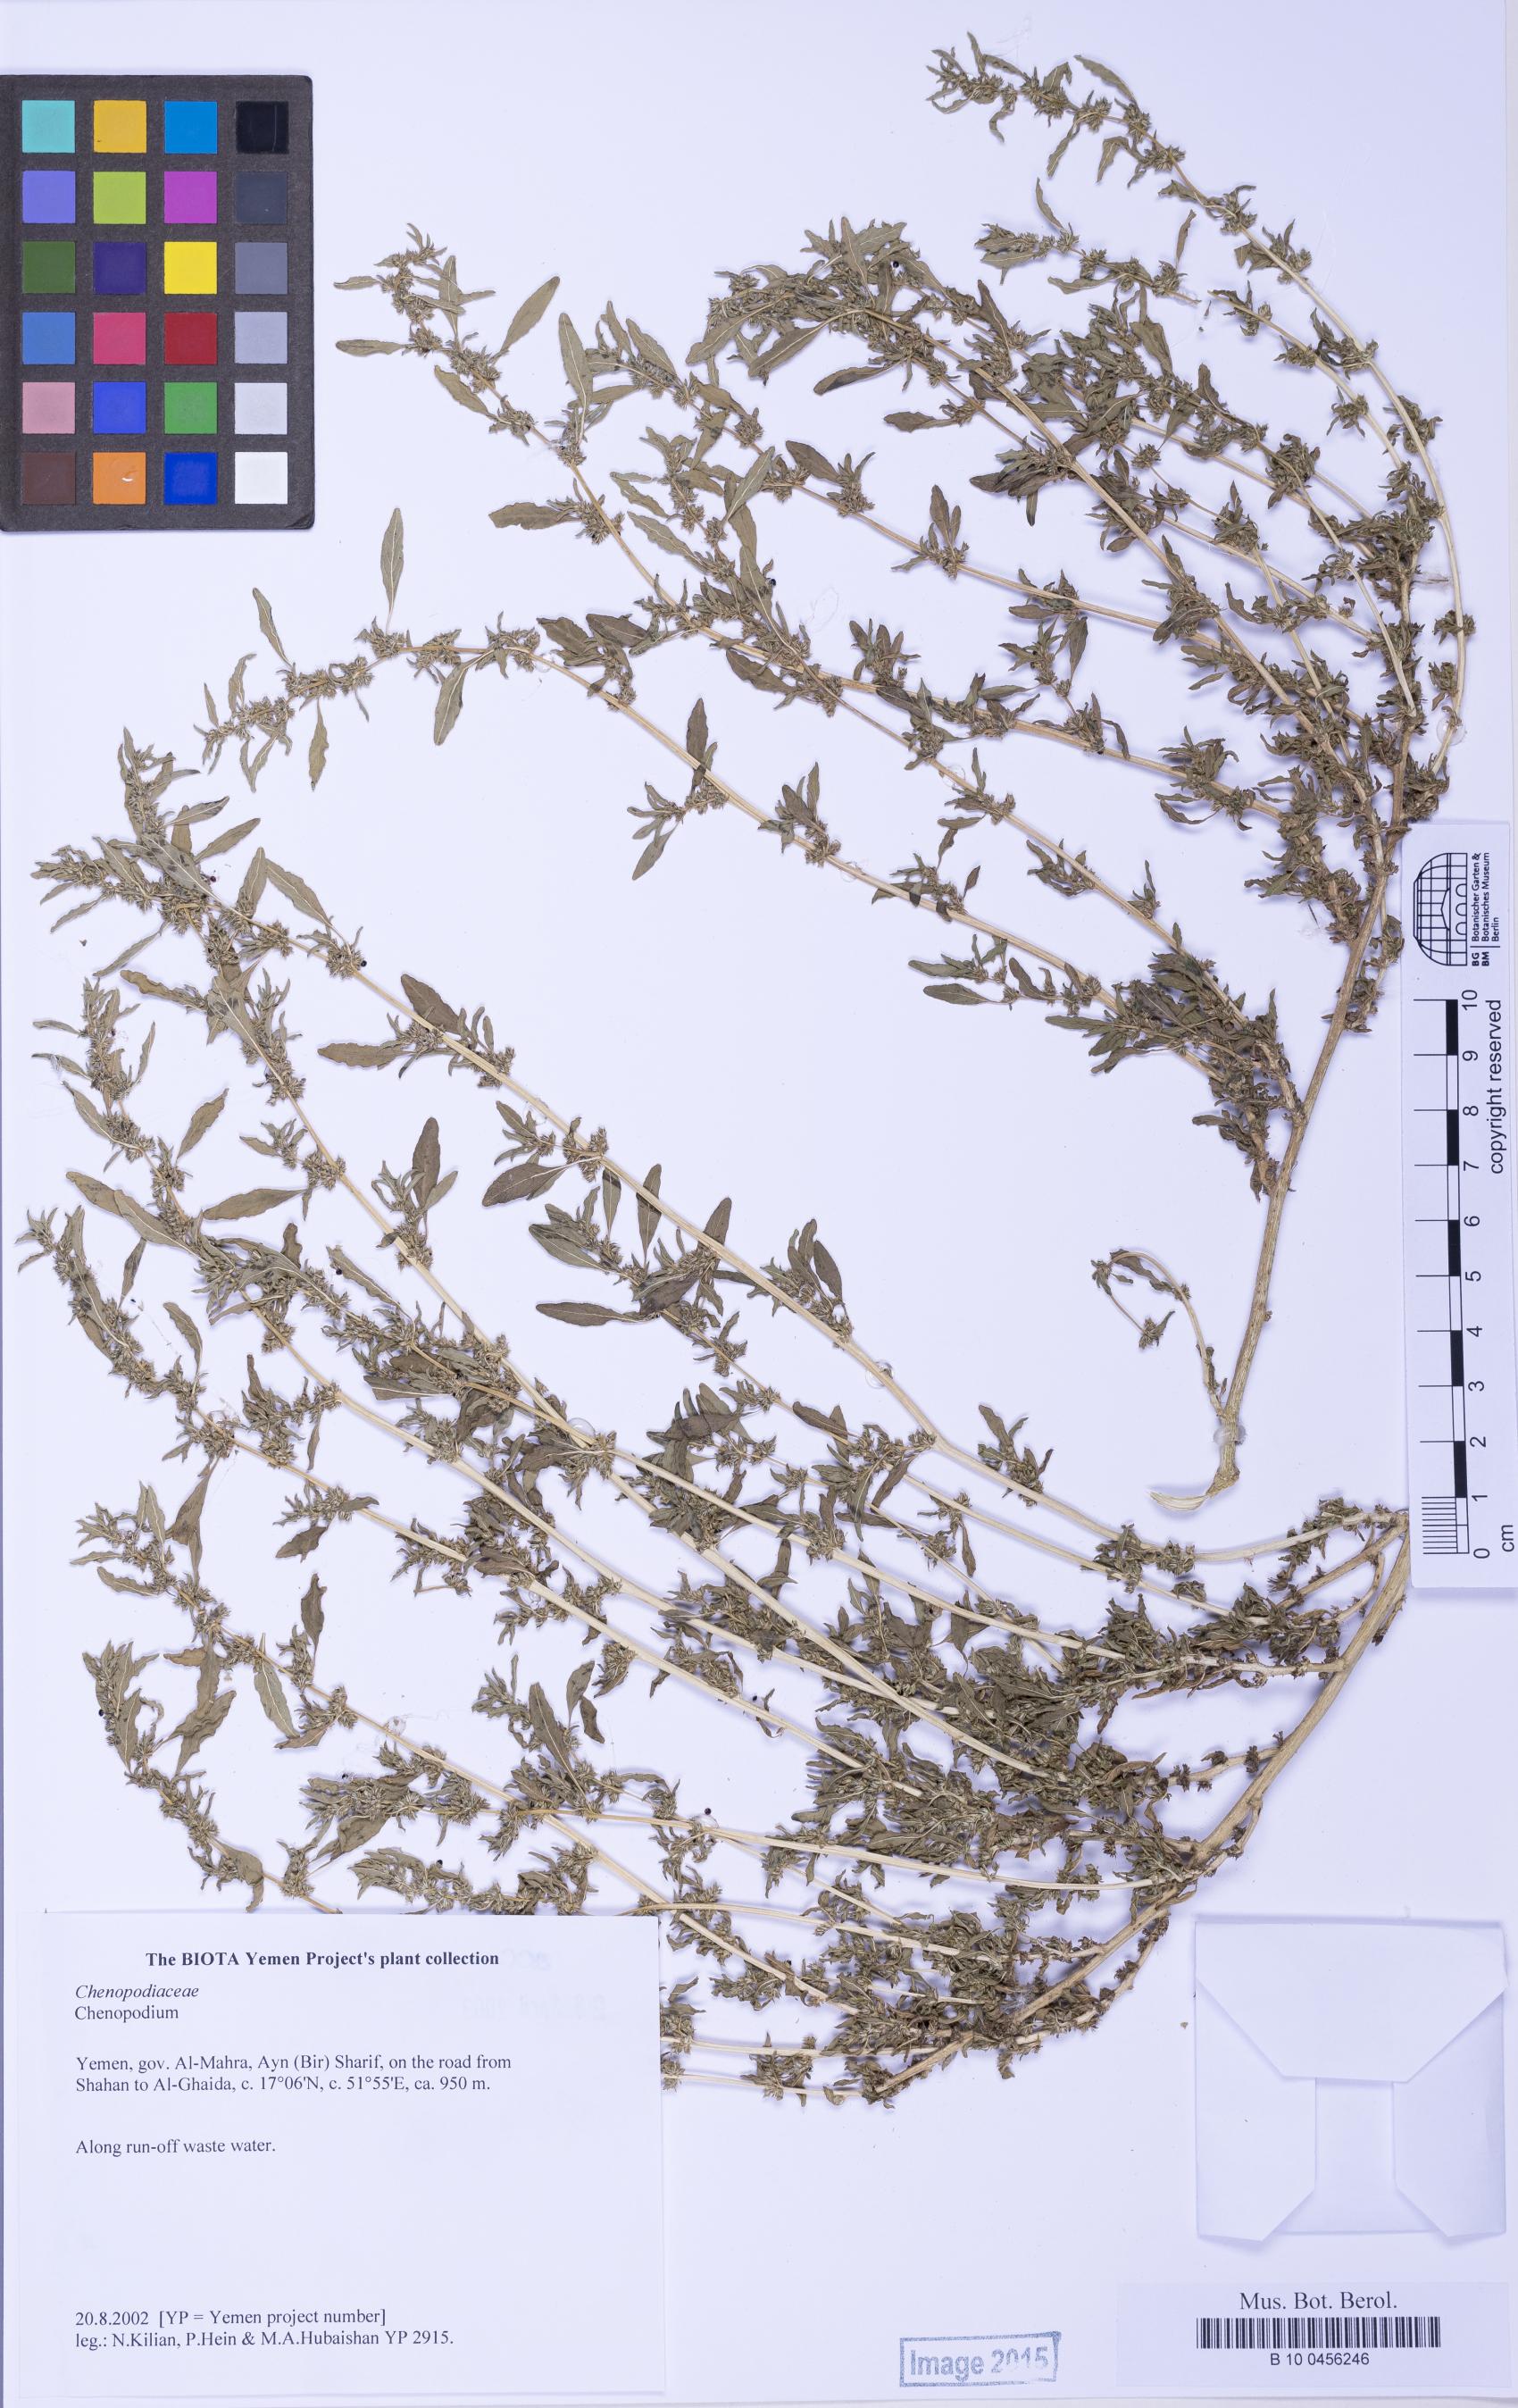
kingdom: Plantae
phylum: Tracheophyta
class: Magnoliopsida
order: Caryophyllales
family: Amaranthaceae
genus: Chenopodium
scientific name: Chenopodium
